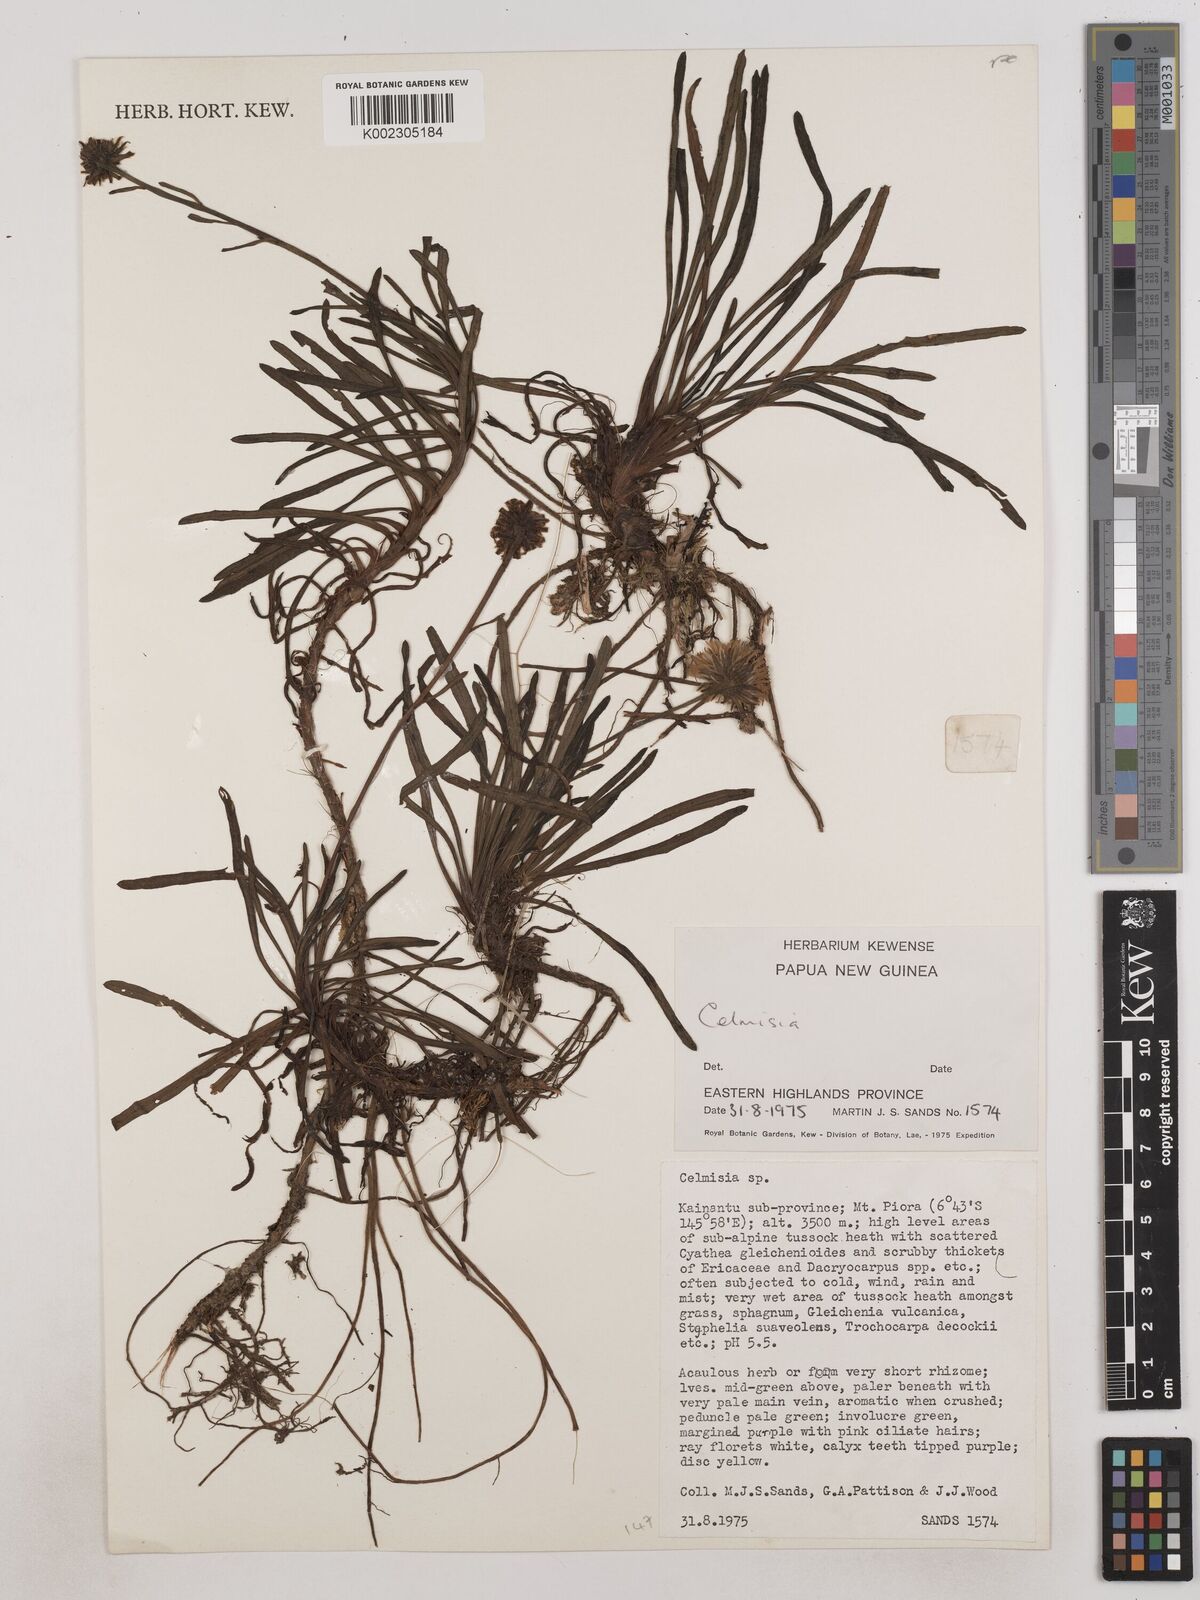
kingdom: Plantae
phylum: Tracheophyta
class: Magnoliopsida
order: Asterales
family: Asteraceae
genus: Keysseria
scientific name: Keysseria radicans
